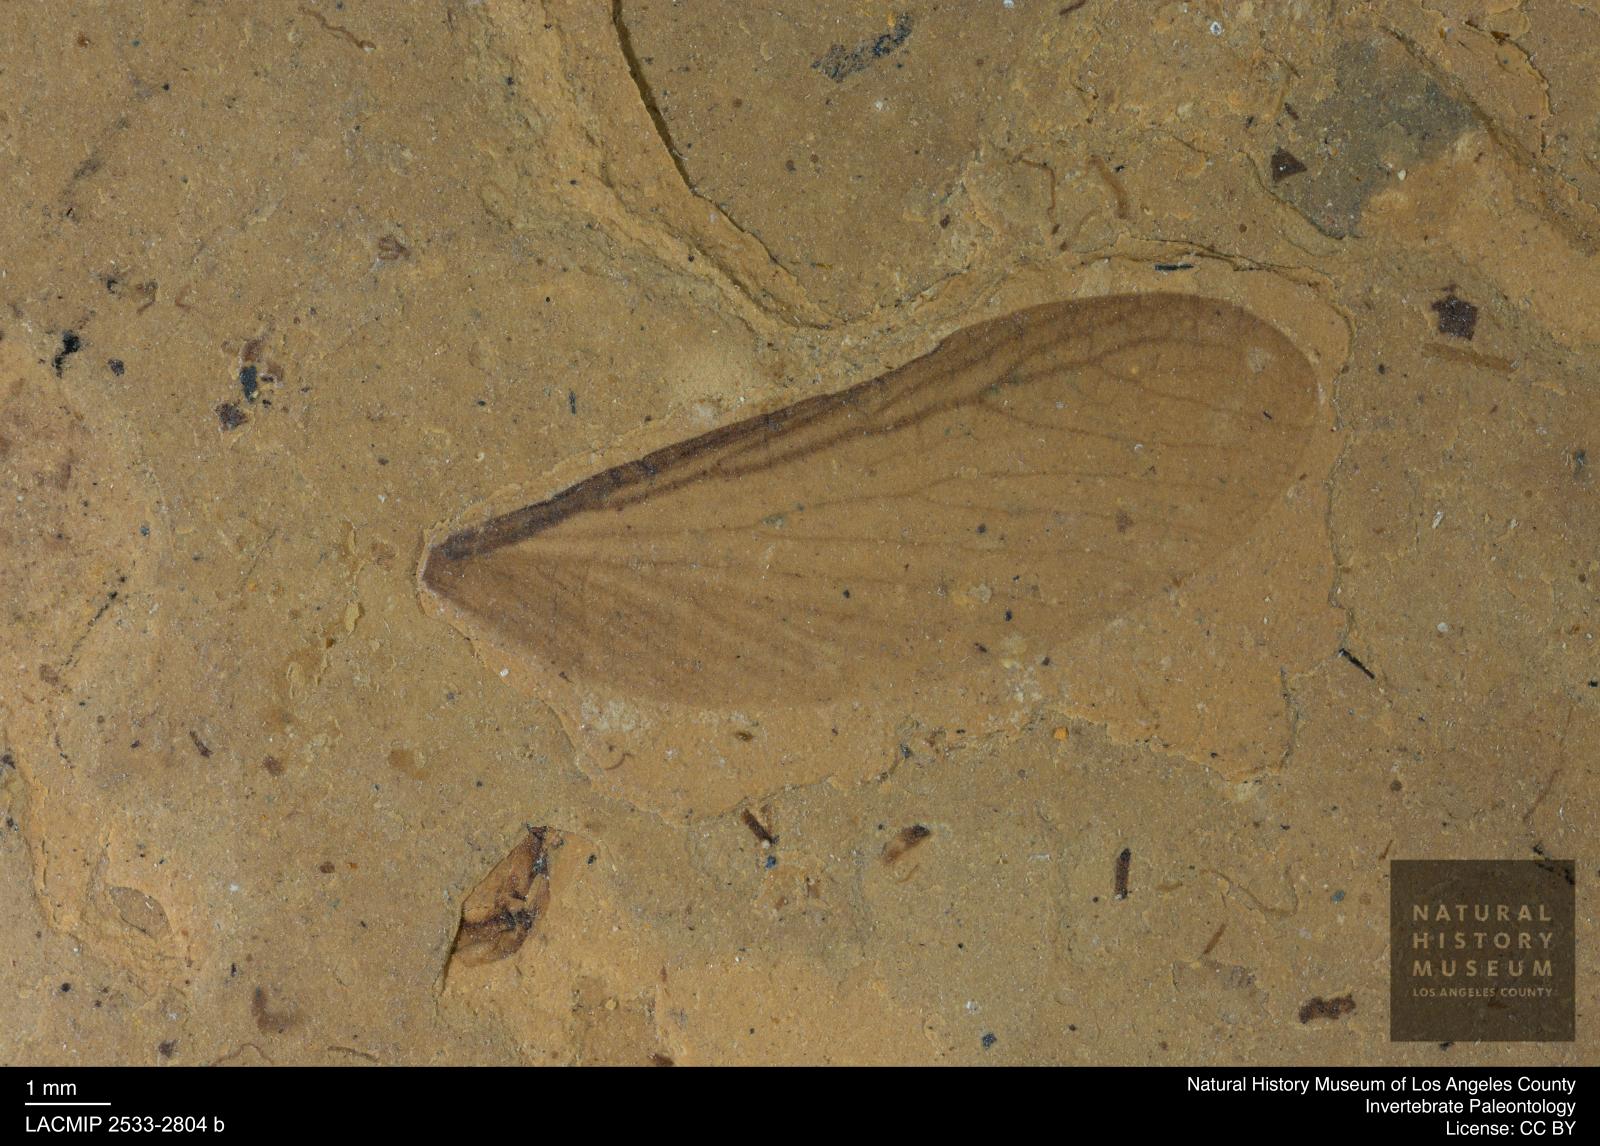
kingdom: Animalia
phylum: Arthropoda
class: Insecta
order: Blattodea
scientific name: Blattodea
